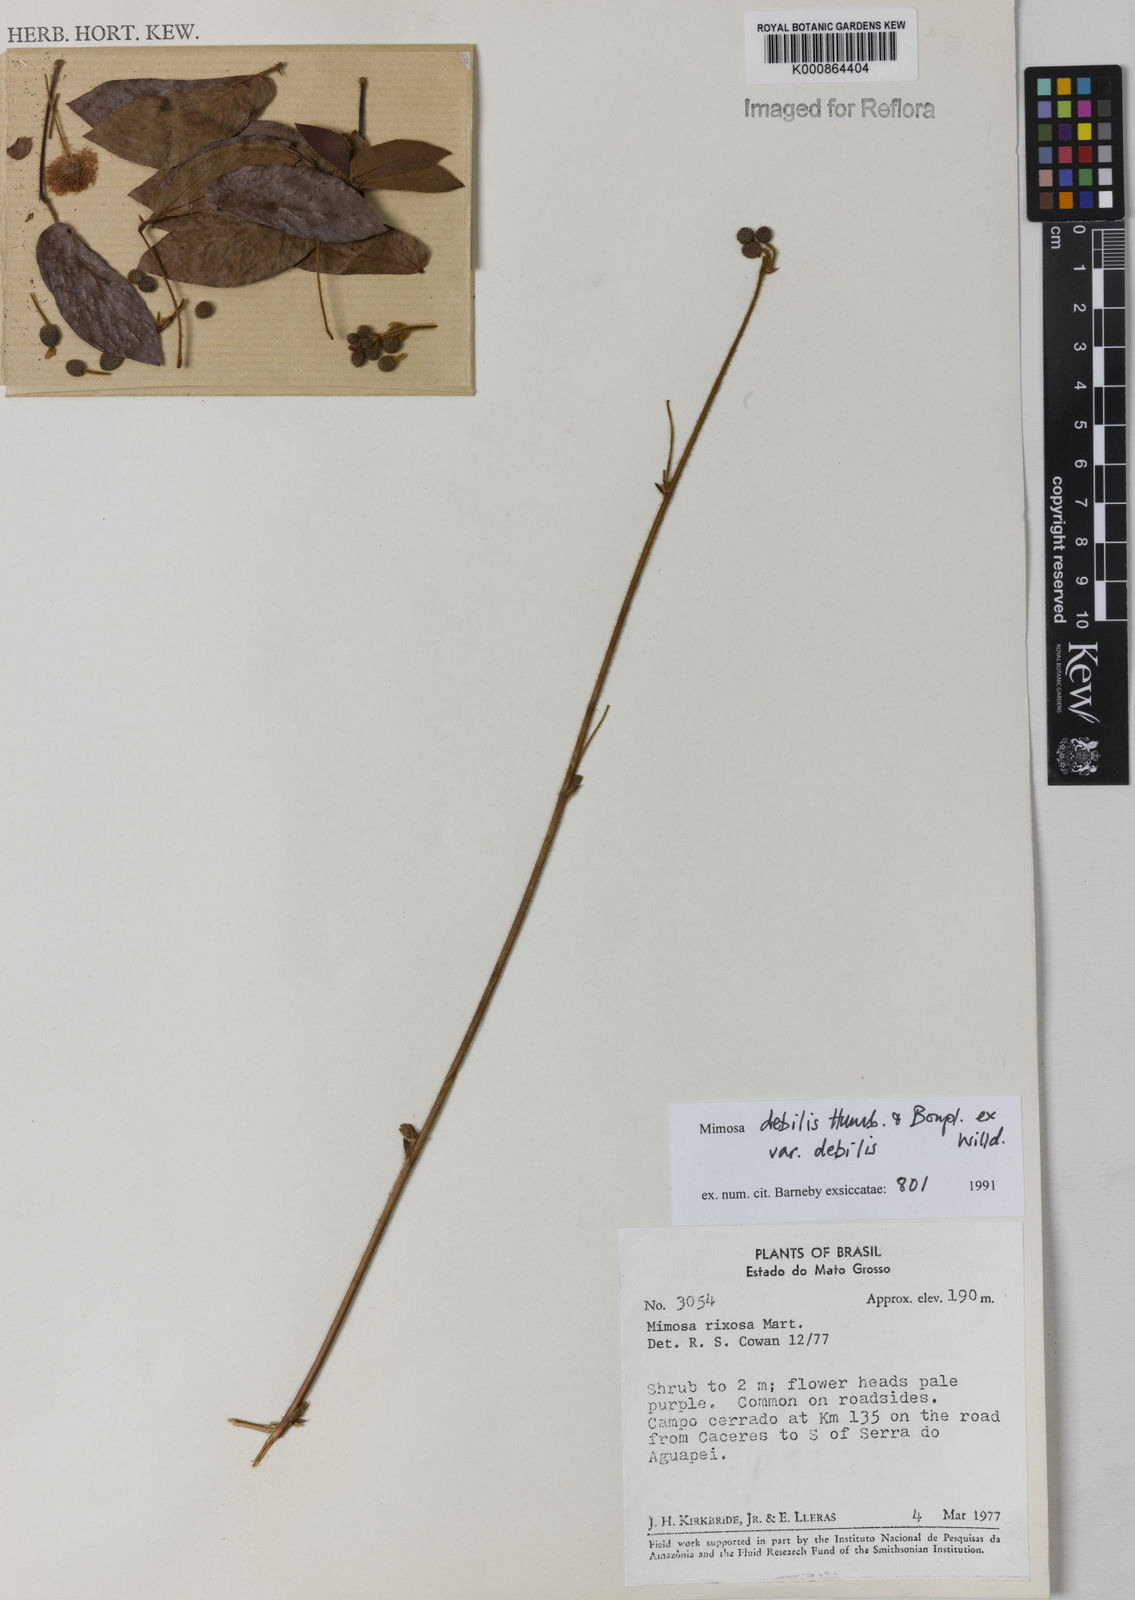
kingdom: Plantae
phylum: Tracheophyta
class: Magnoliopsida
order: Fabales
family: Fabaceae
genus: Mimosa
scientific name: Mimosa debilis
